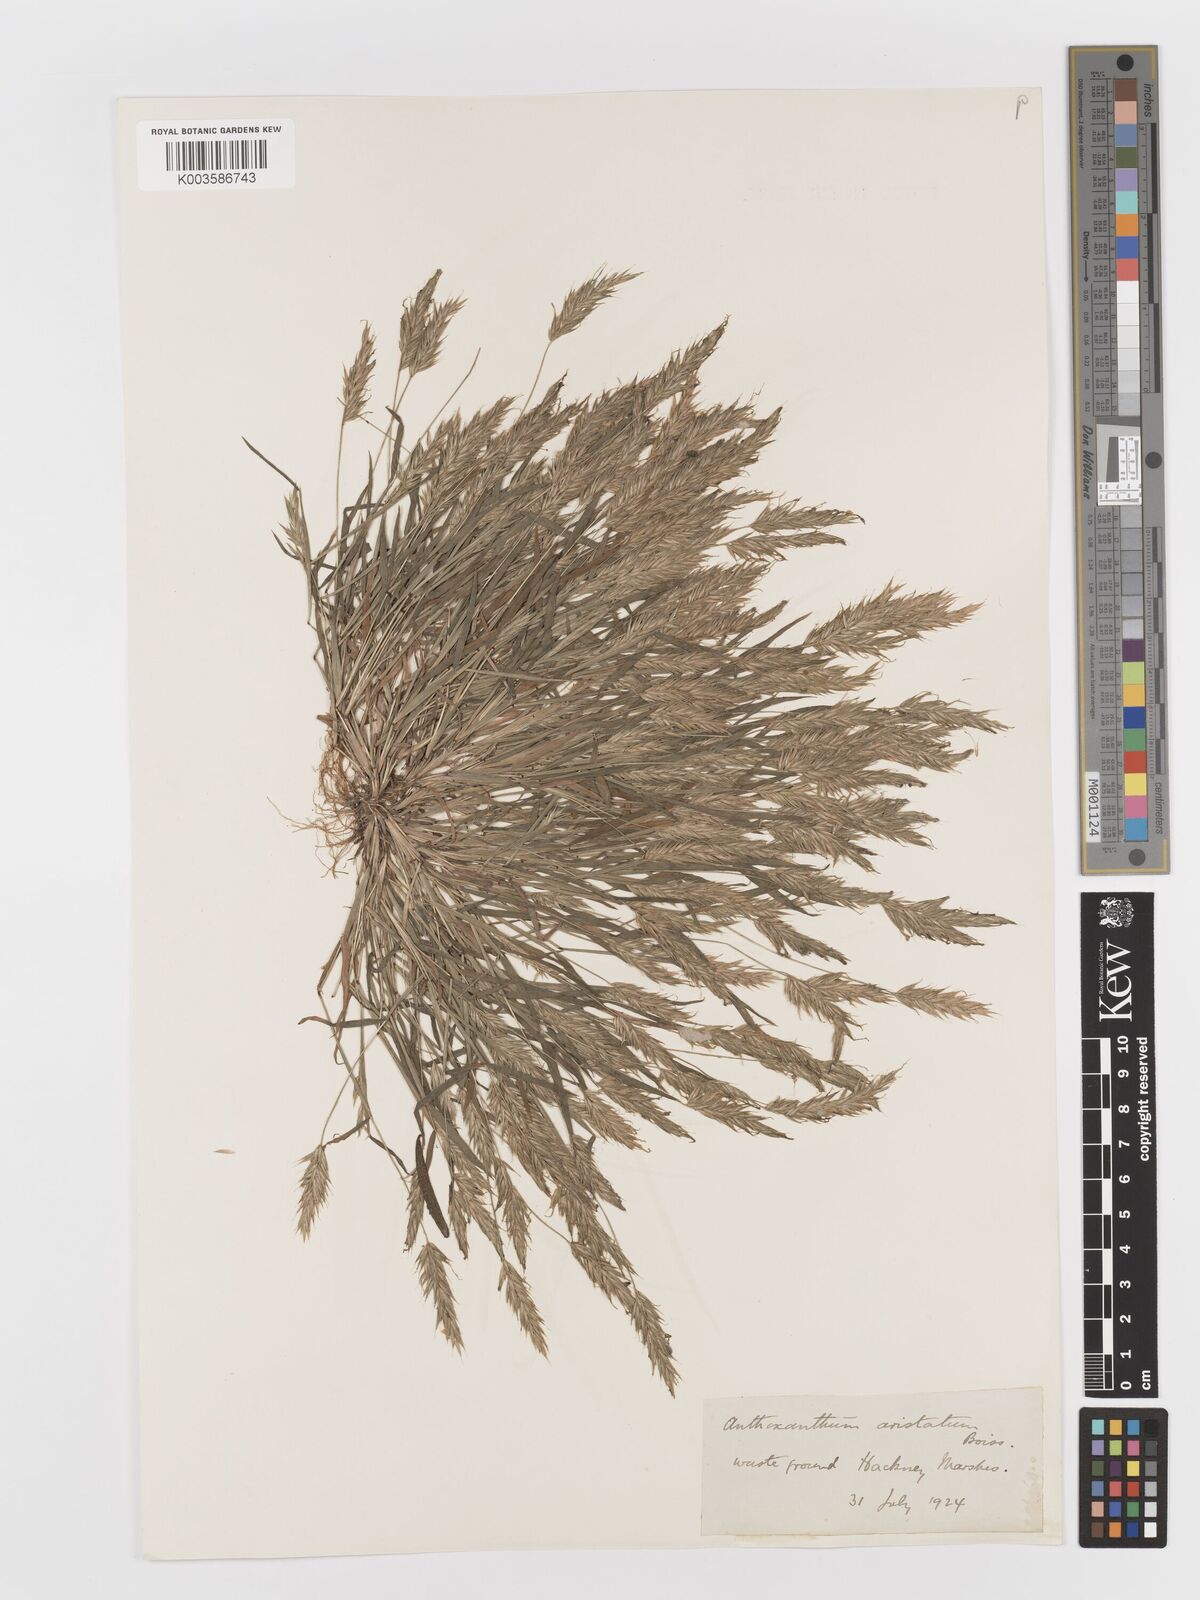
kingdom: Plantae
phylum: Tracheophyta
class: Liliopsida
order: Poales
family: Poaceae
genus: Anthoxanthum
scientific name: Anthoxanthum aristatum
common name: Annual vernal-grass
